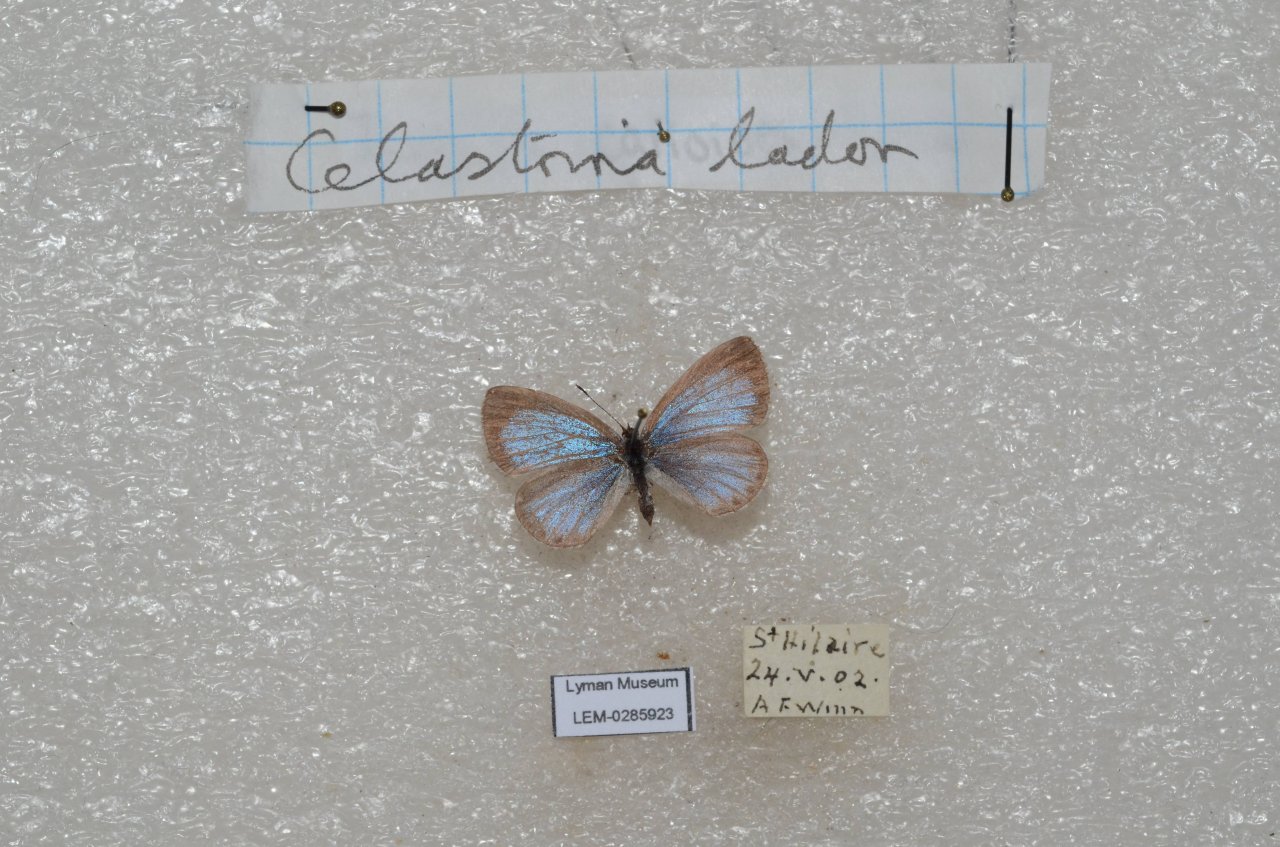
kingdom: Animalia
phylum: Arthropoda
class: Insecta
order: Lepidoptera
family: Lycaenidae
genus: Celastrina
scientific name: Celastrina lucia
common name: Northern Spring Azure
